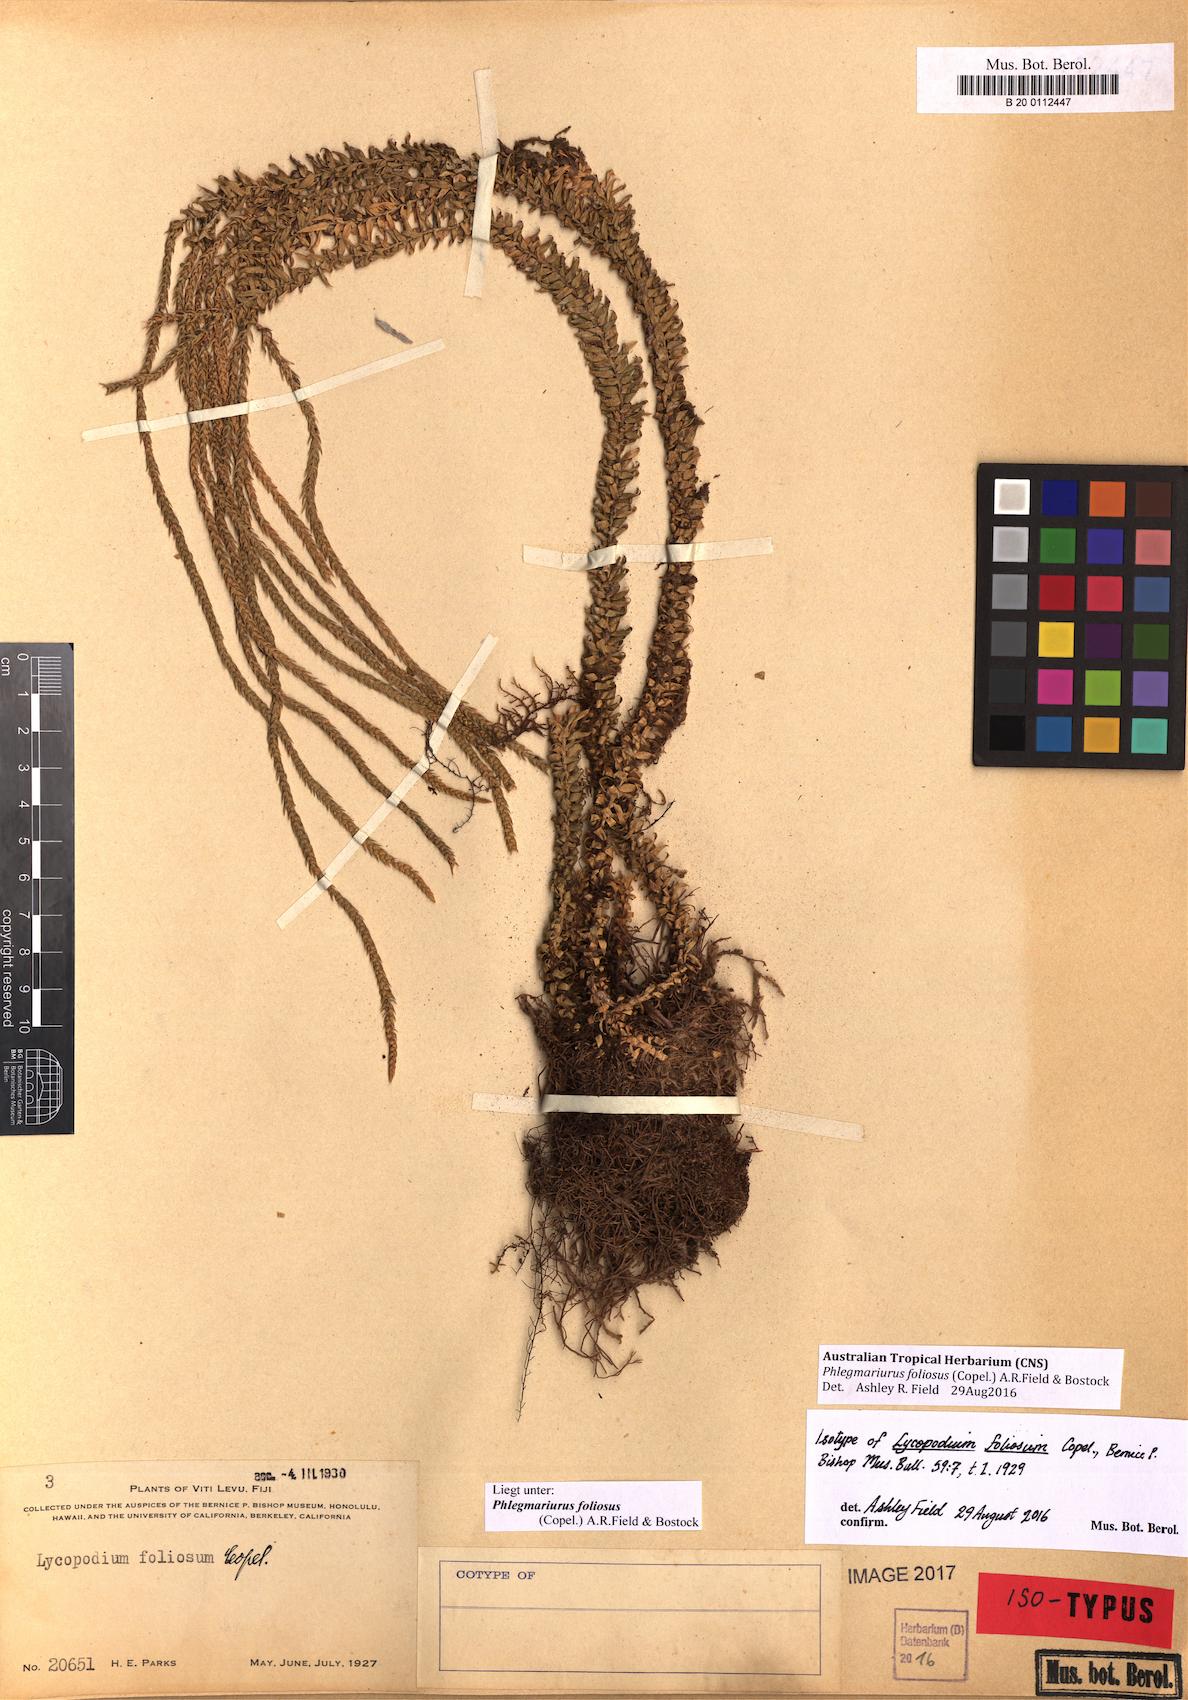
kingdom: Plantae
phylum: Tracheophyta
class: Lycopodiopsida
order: Lycopodiales
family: Lycopodiaceae
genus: Phlegmariurus
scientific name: Phlegmariurus foliosus
